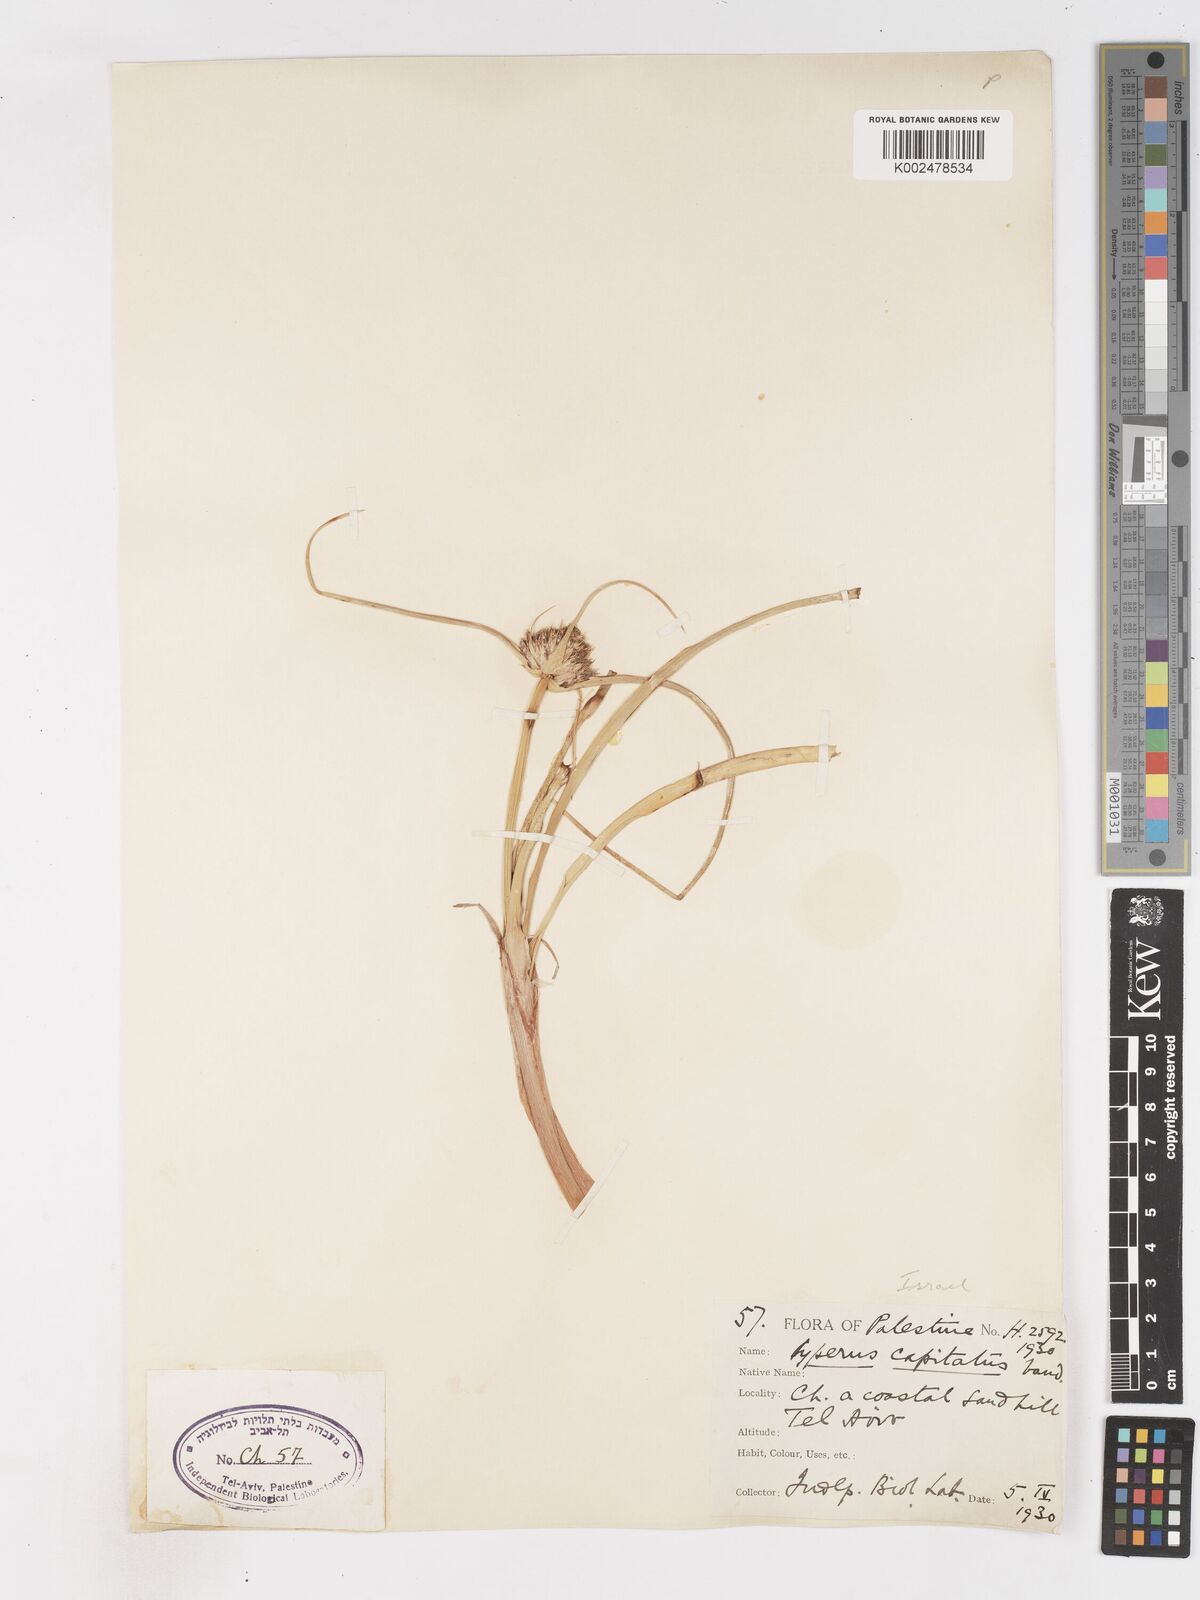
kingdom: Plantae
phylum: Tracheophyta
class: Liliopsida
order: Poales
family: Cyperaceae
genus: Cyperus
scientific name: Cyperus capitatus
